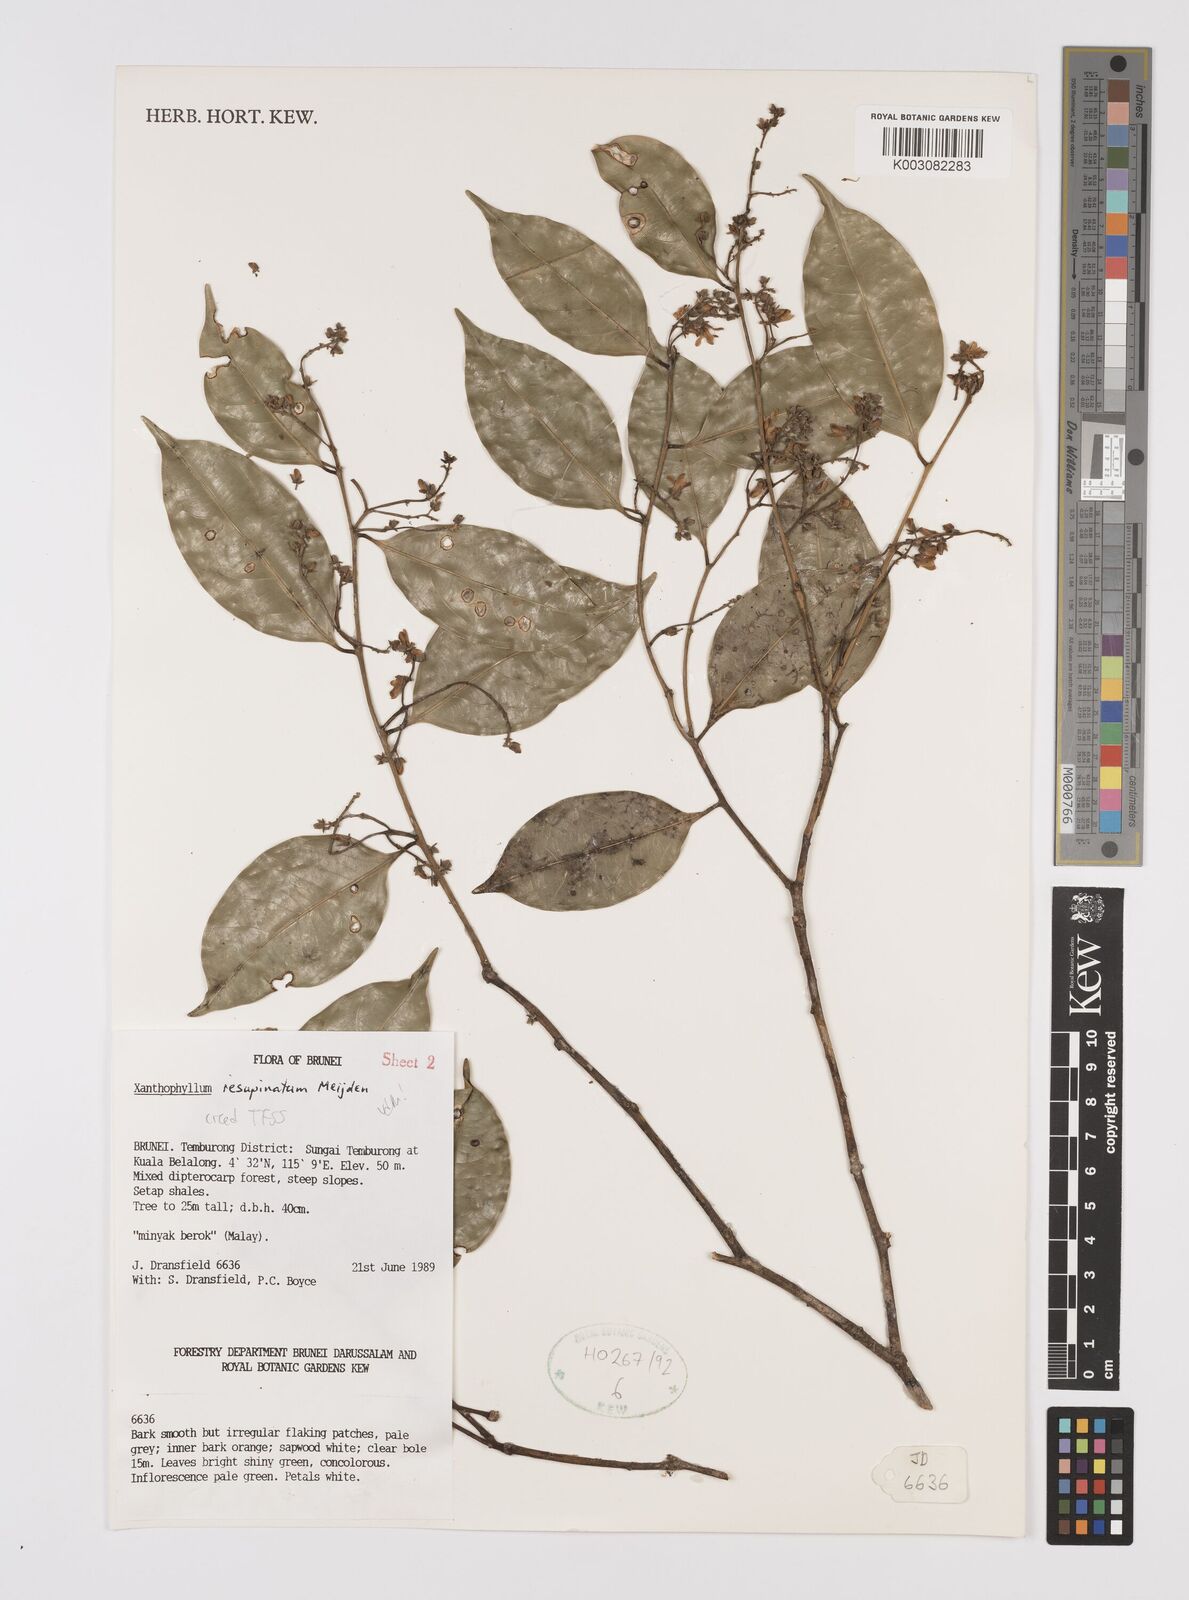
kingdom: Plantae
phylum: Tracheophyta
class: Magnoliopsida
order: Fabales
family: Polygalaceae
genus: Xanthophyllum
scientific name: Xanthophyllum resupinatum
